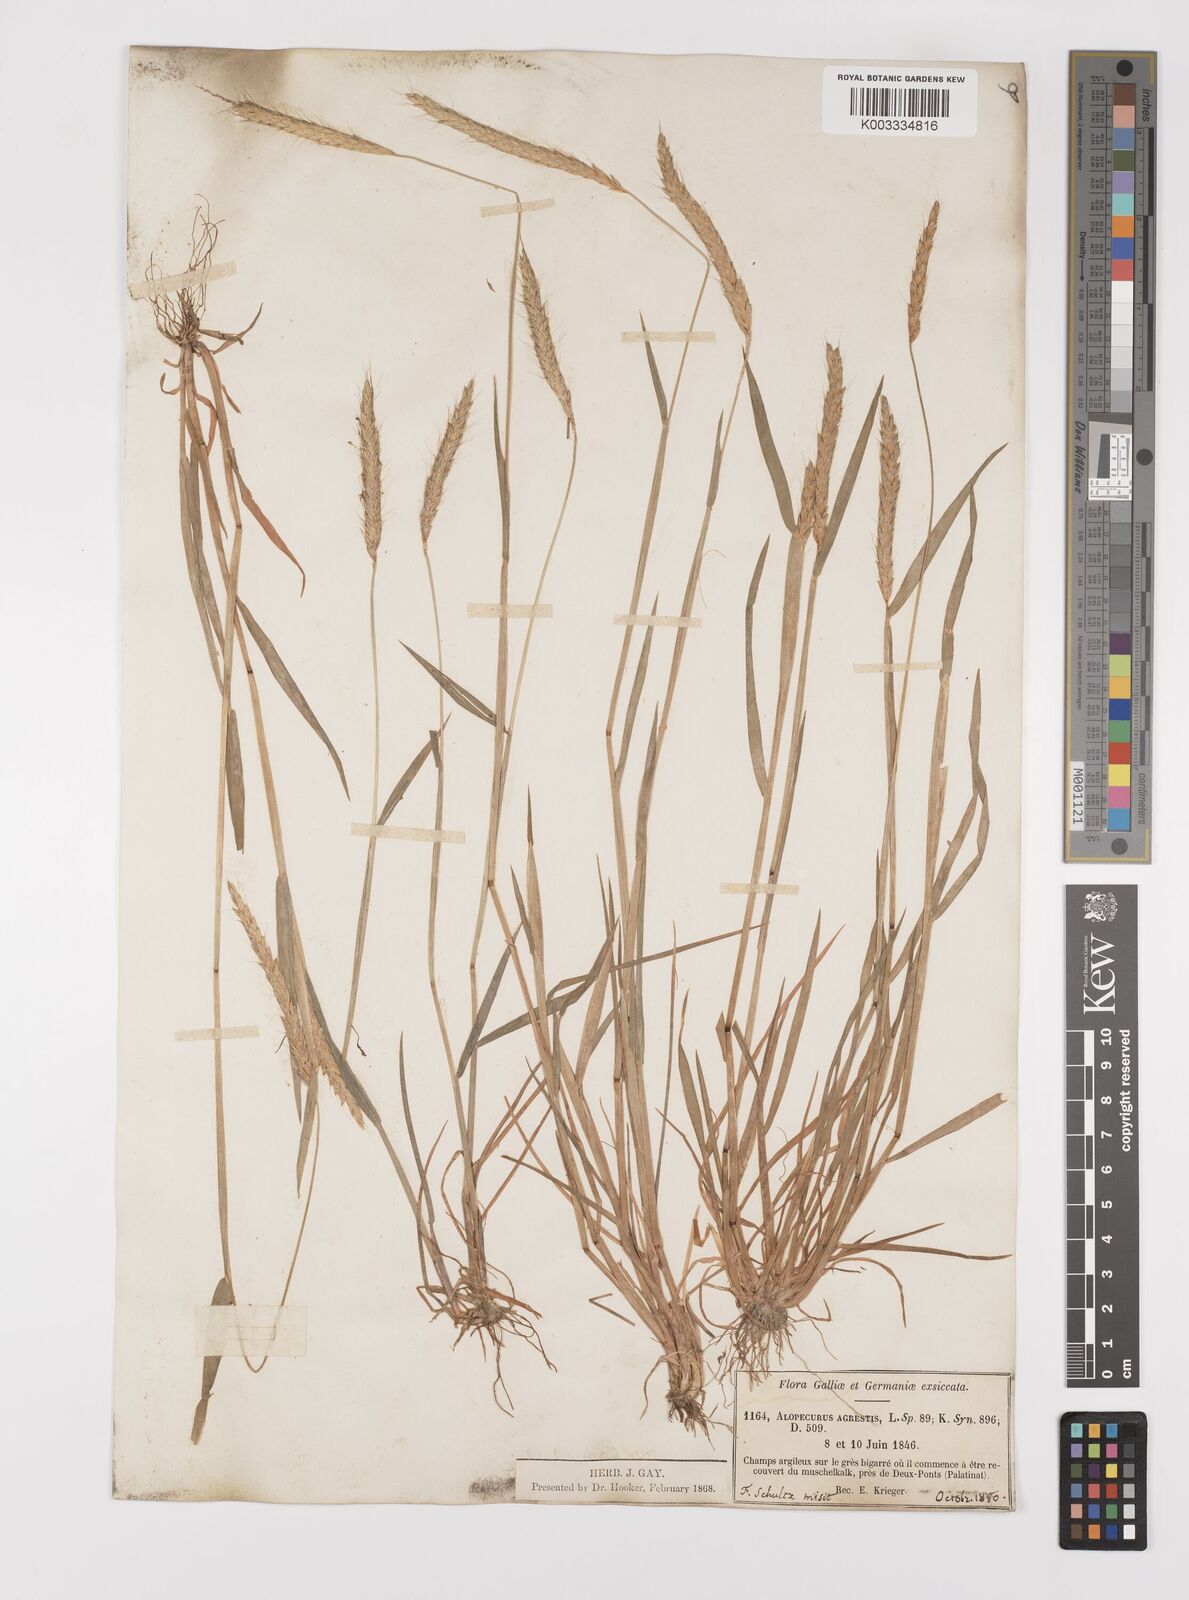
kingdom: Plantae
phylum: Tracheophyta
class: Liliopsida
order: Poales
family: Poaceae
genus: Alopecurus
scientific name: Alopecurus myosuroides
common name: Black-grass
